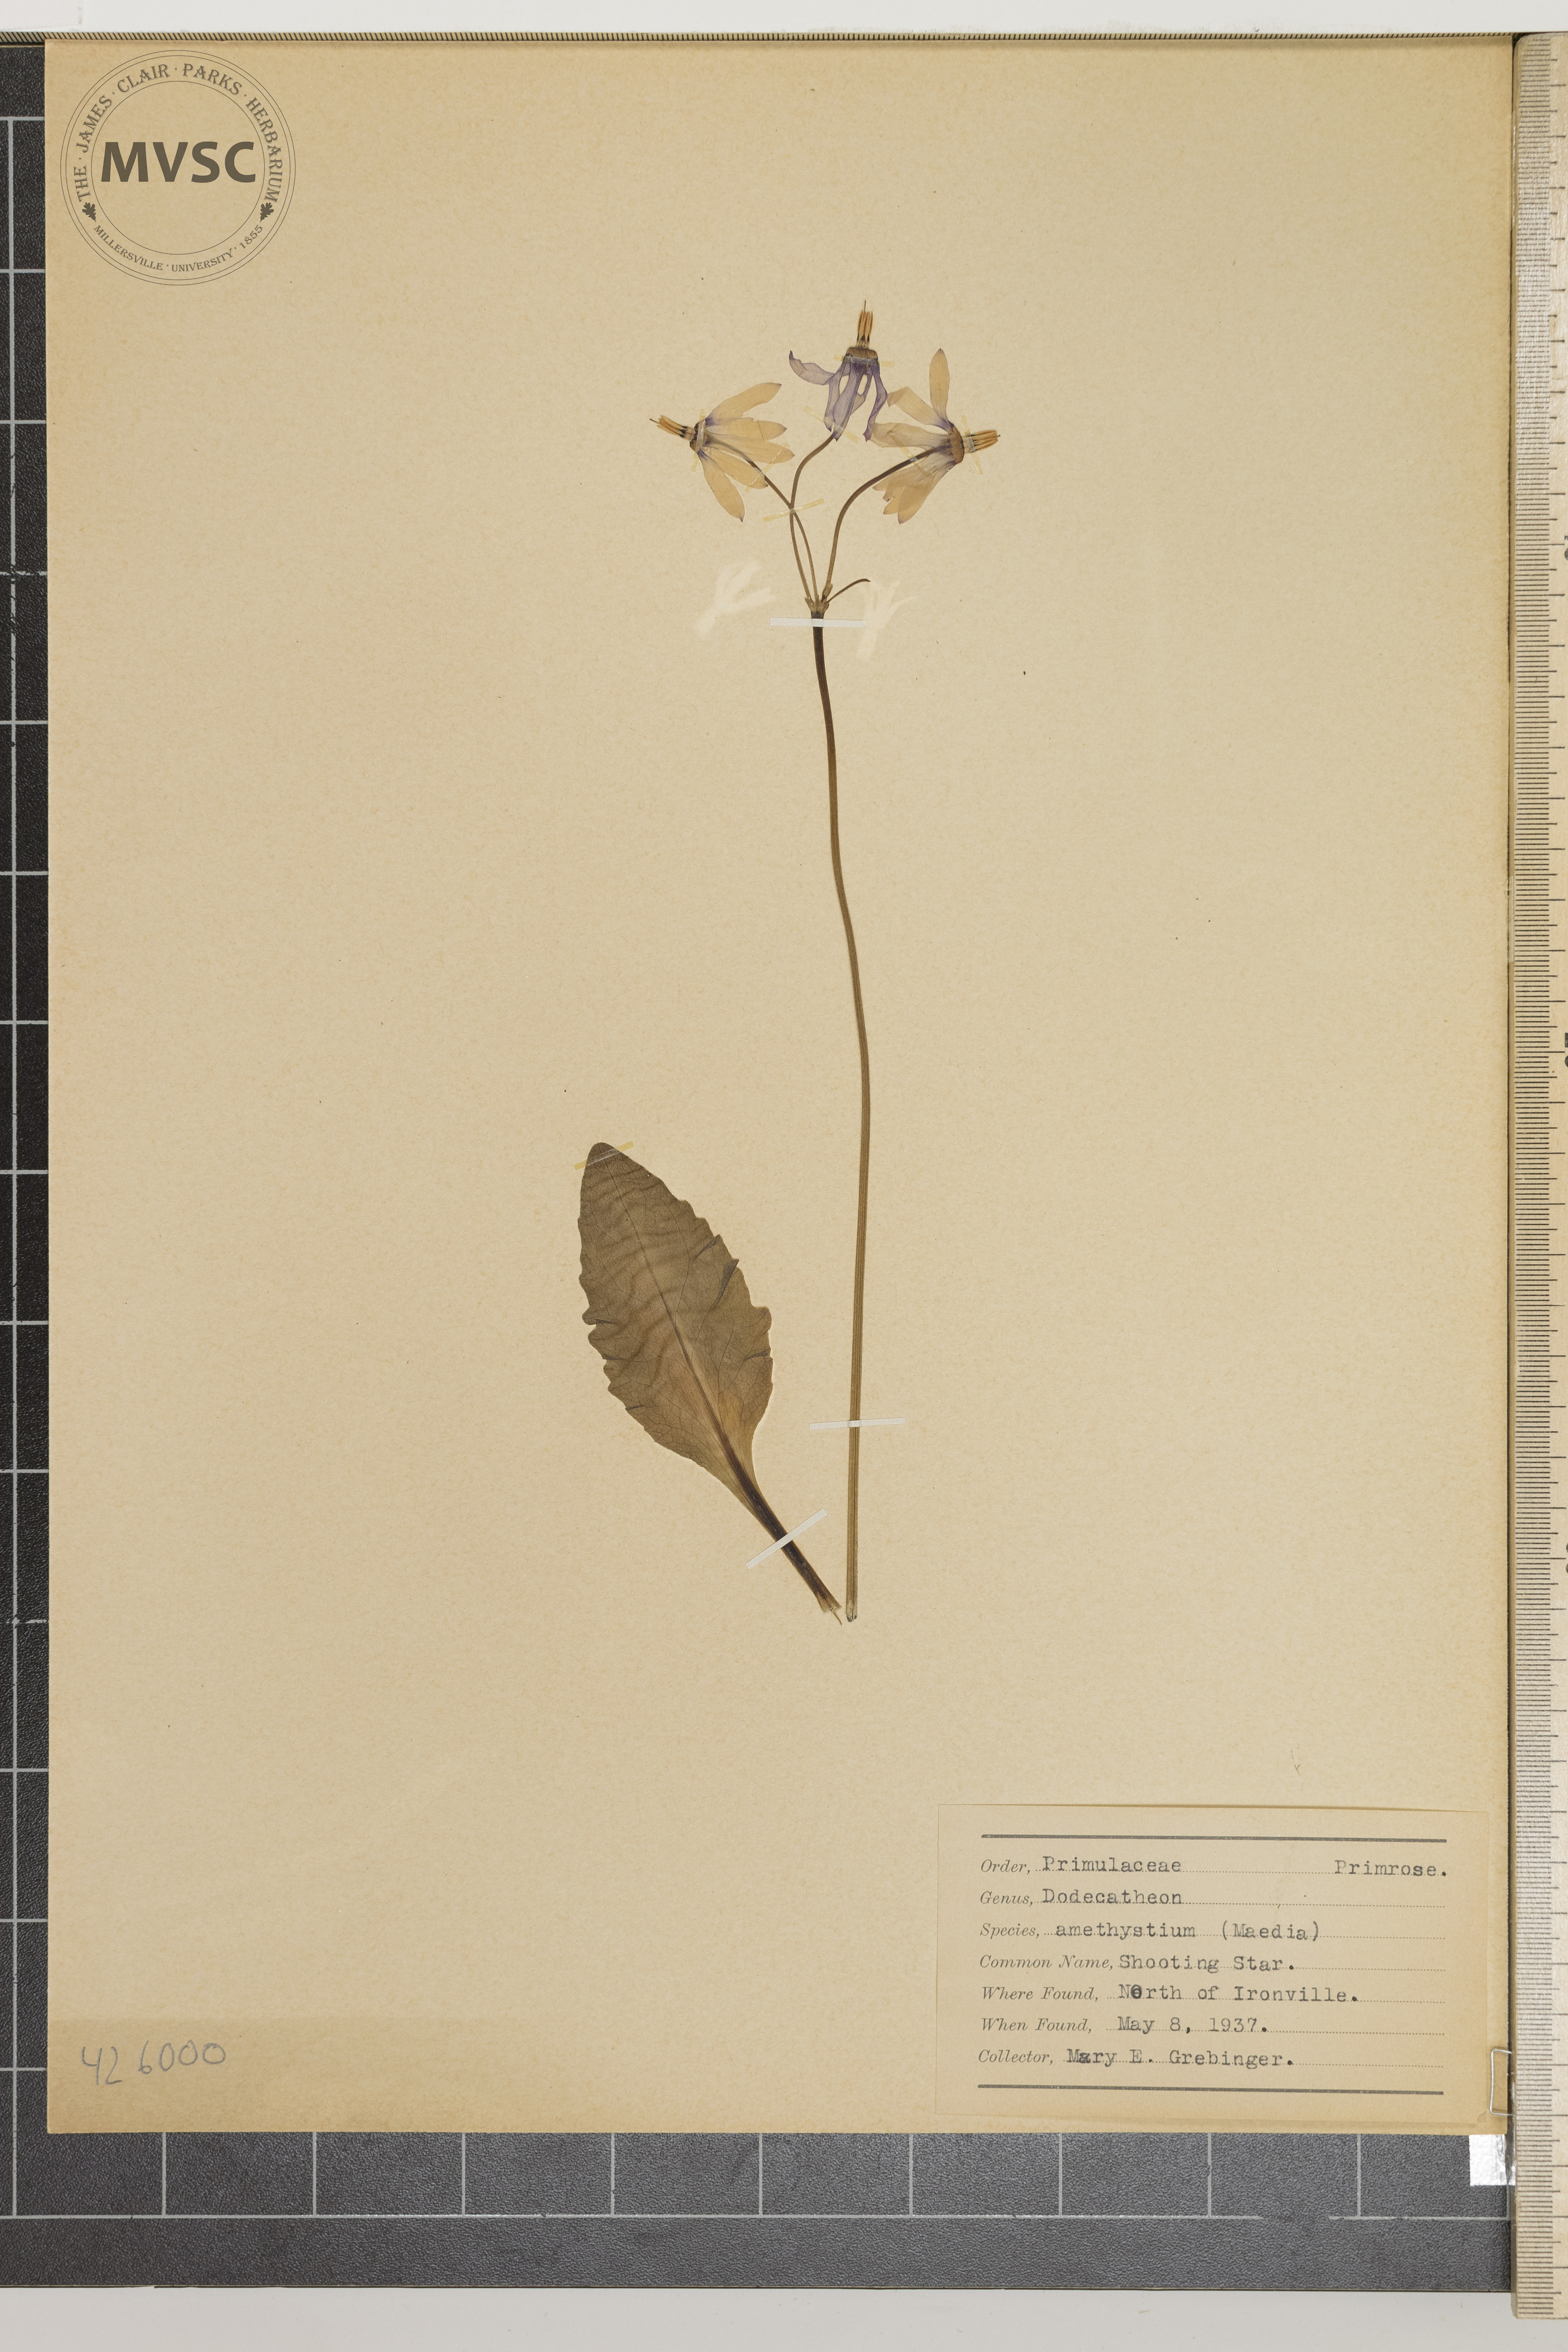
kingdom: Plantae
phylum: Tracheophyta
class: Magnoliopsida
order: Ericales
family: Primulaceae
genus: Dodecatheon
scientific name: Dodecatheon amethystinum
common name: Shooting Star
